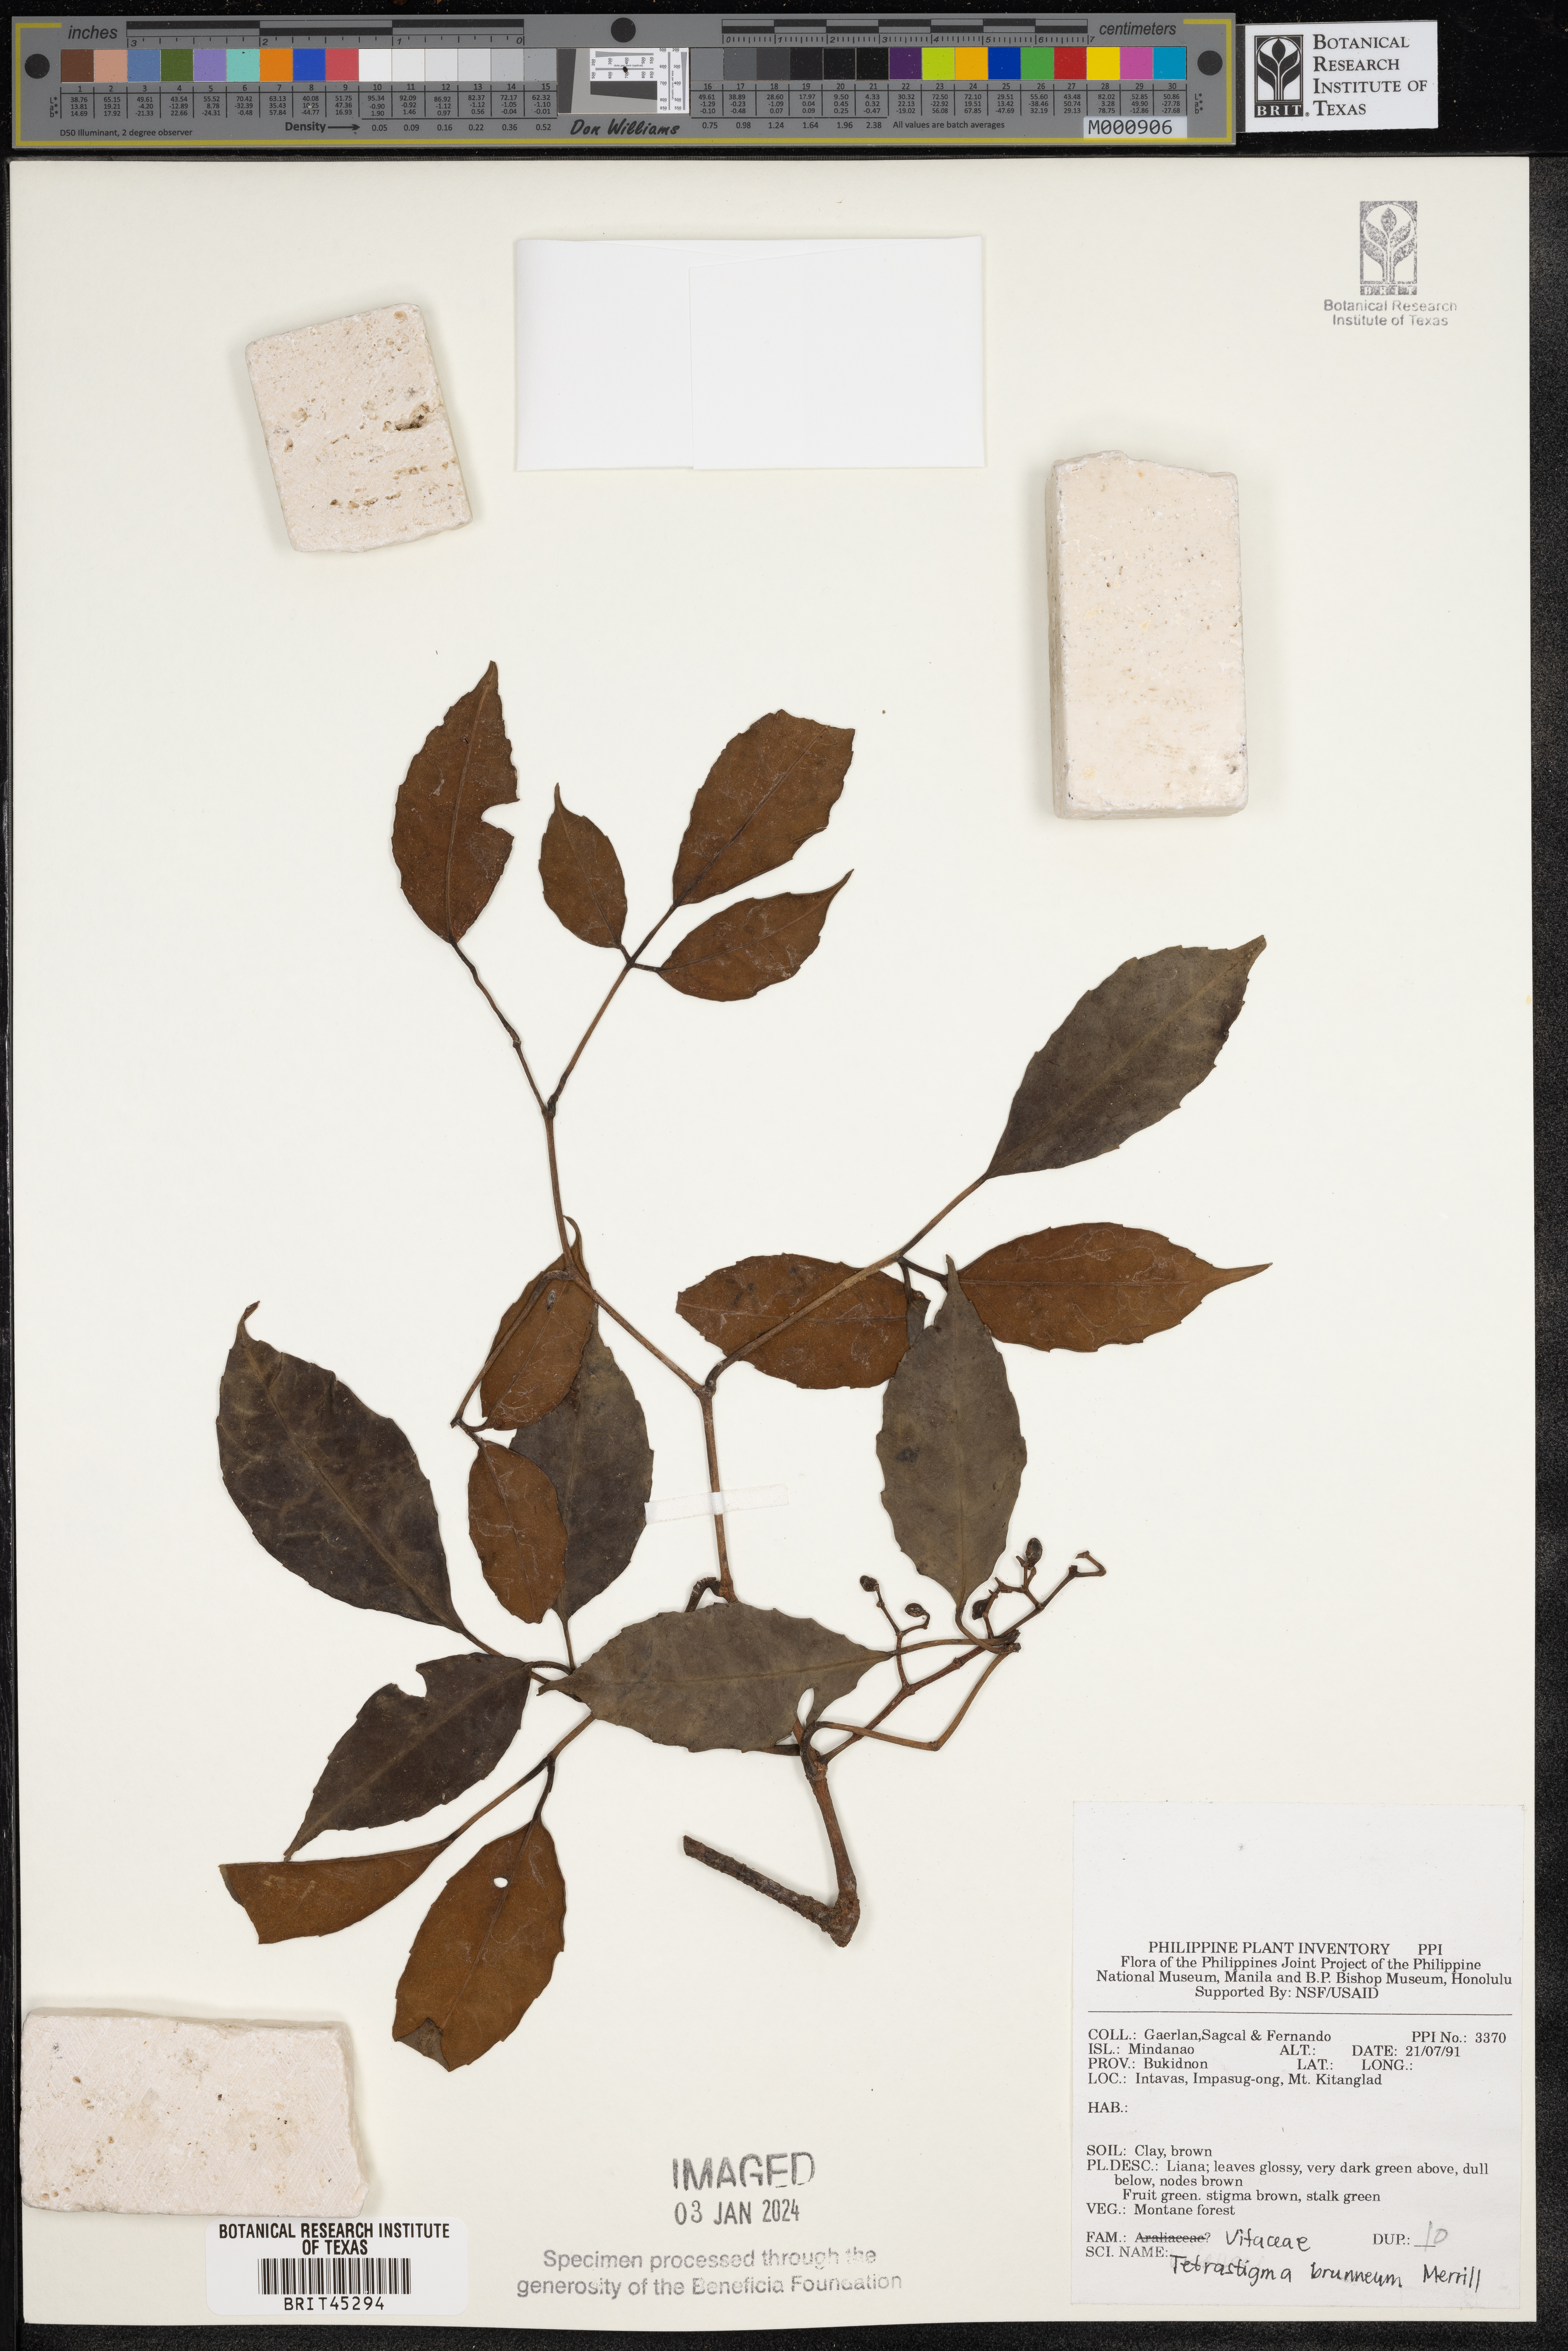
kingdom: Plantae
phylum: Tracheophyta
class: Magnoliopsida
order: Vitales
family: Vitaceae
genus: Tetrastigma
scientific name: Tetrastigma brunneum
